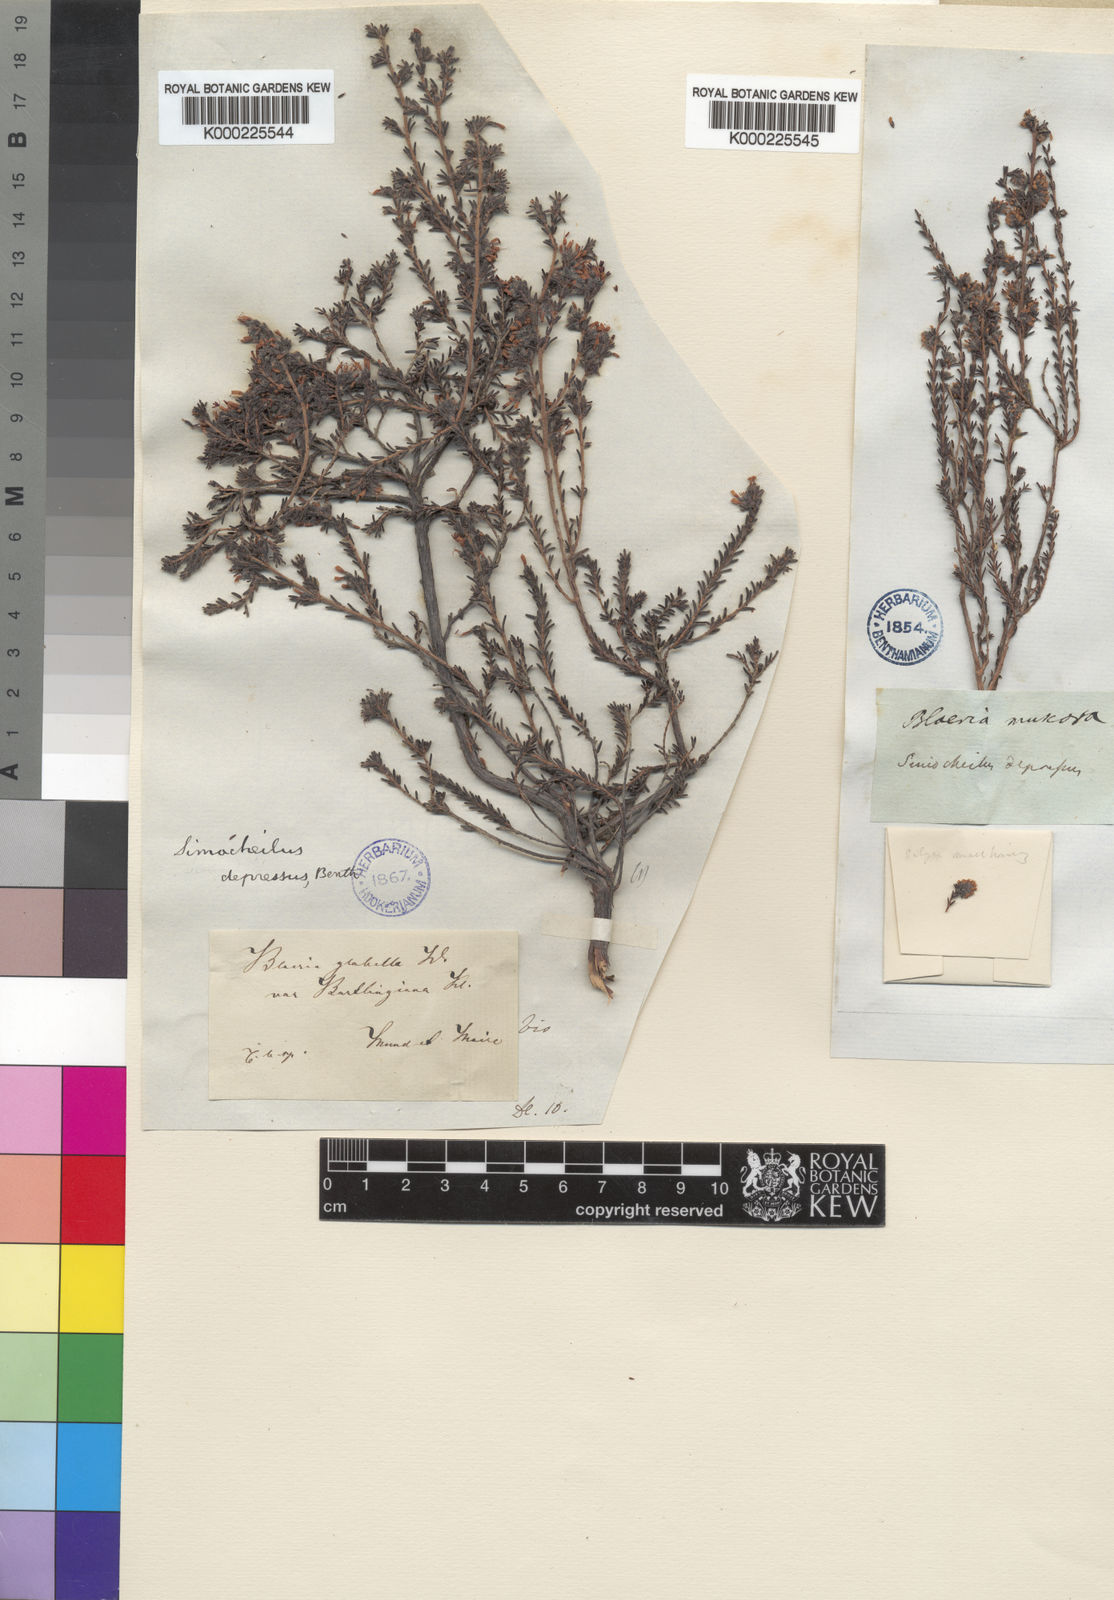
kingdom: Plantae
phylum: Tracheophyta
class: Magnoliopsida
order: Ericales
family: Ericaceae
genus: Erica
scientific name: Erica glabella
